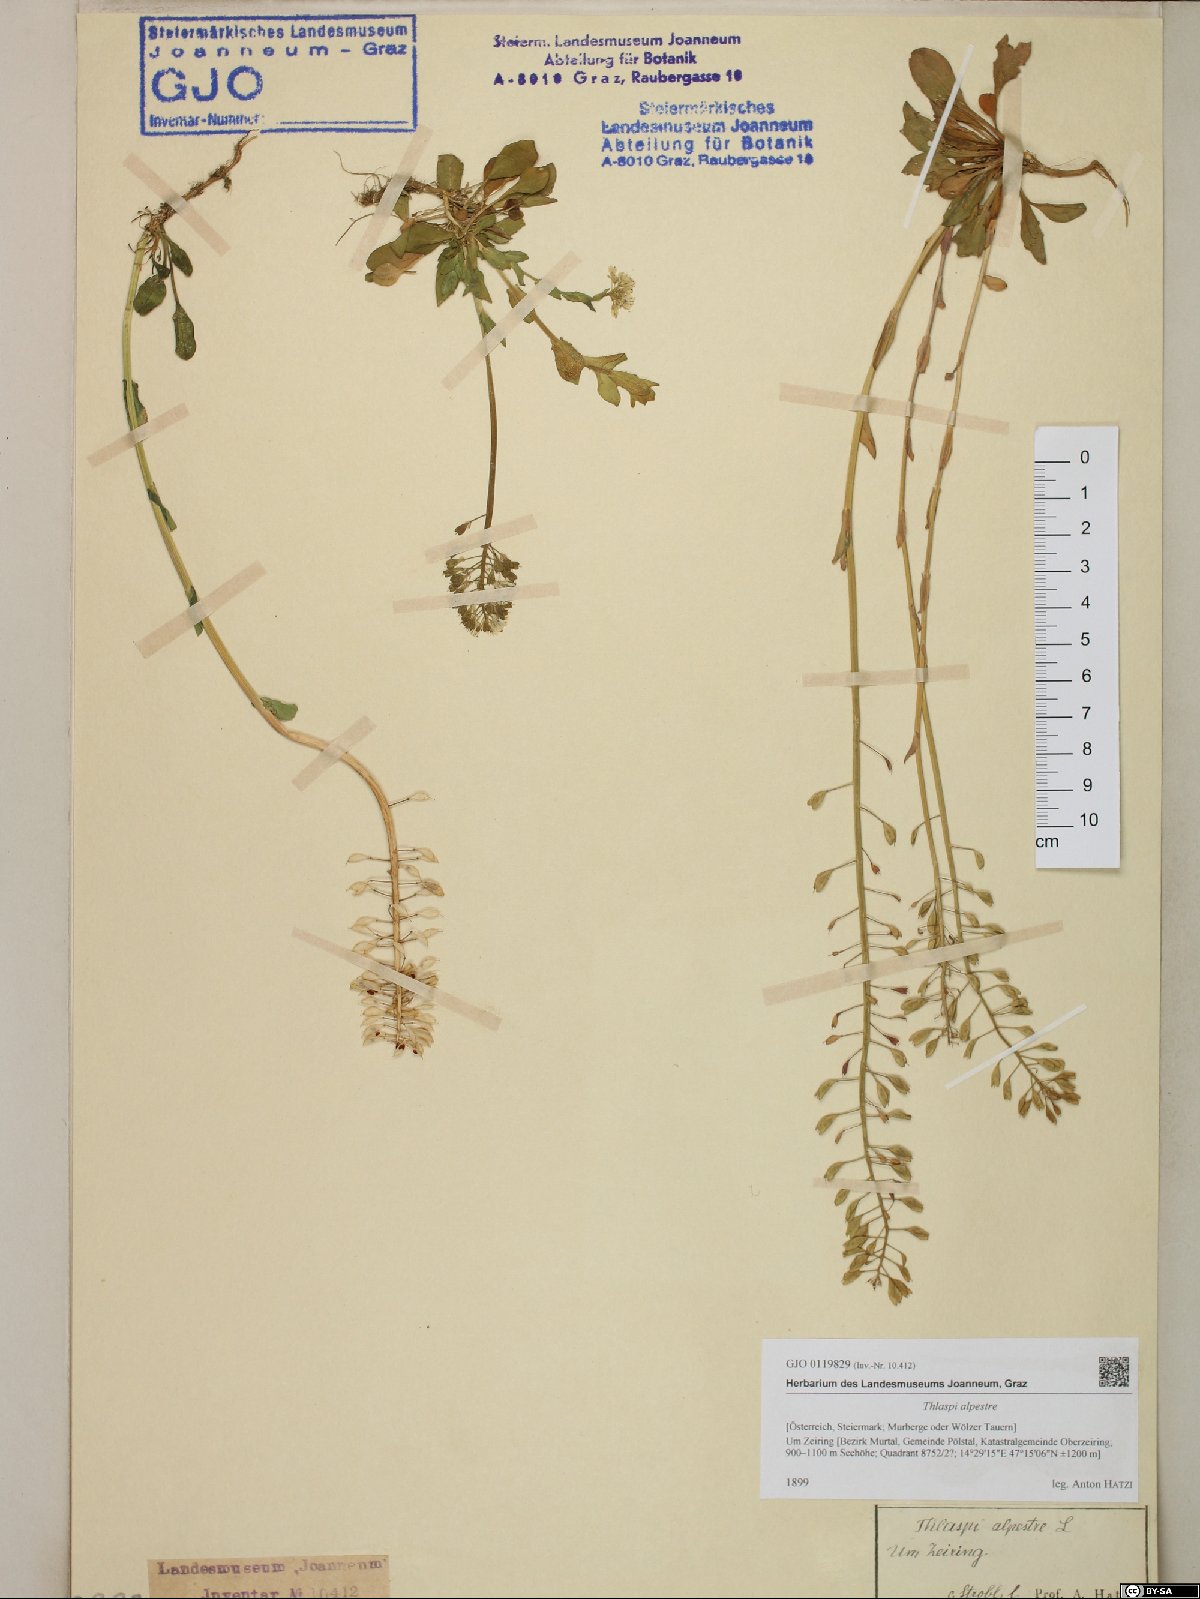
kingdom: Plantae
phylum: Tracheophyta
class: Magnoliopsida
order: Brassicales
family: Brassicaceae
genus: Noccaea
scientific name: Noccaea caerulescens
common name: Alpine pennycress
